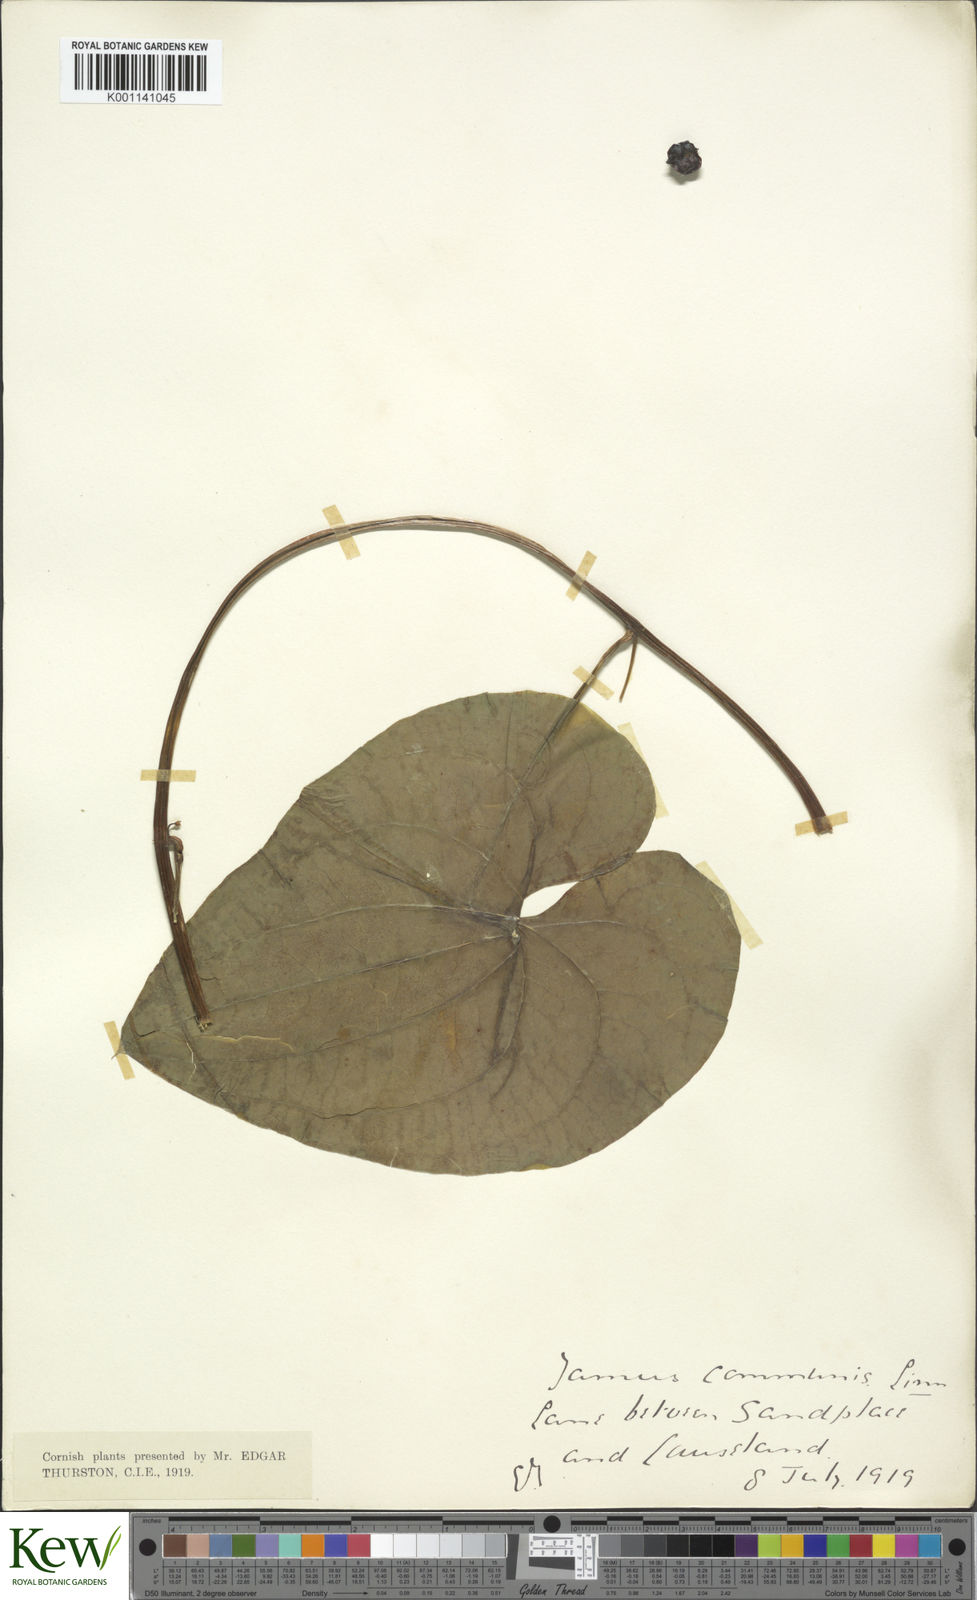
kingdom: Plantae
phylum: Tracheophyta
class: Liliopsida
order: Dioscoreales
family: Dioscoreaceae
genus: Dioscorea
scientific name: Dioscorea communis
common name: Black-bindweed
